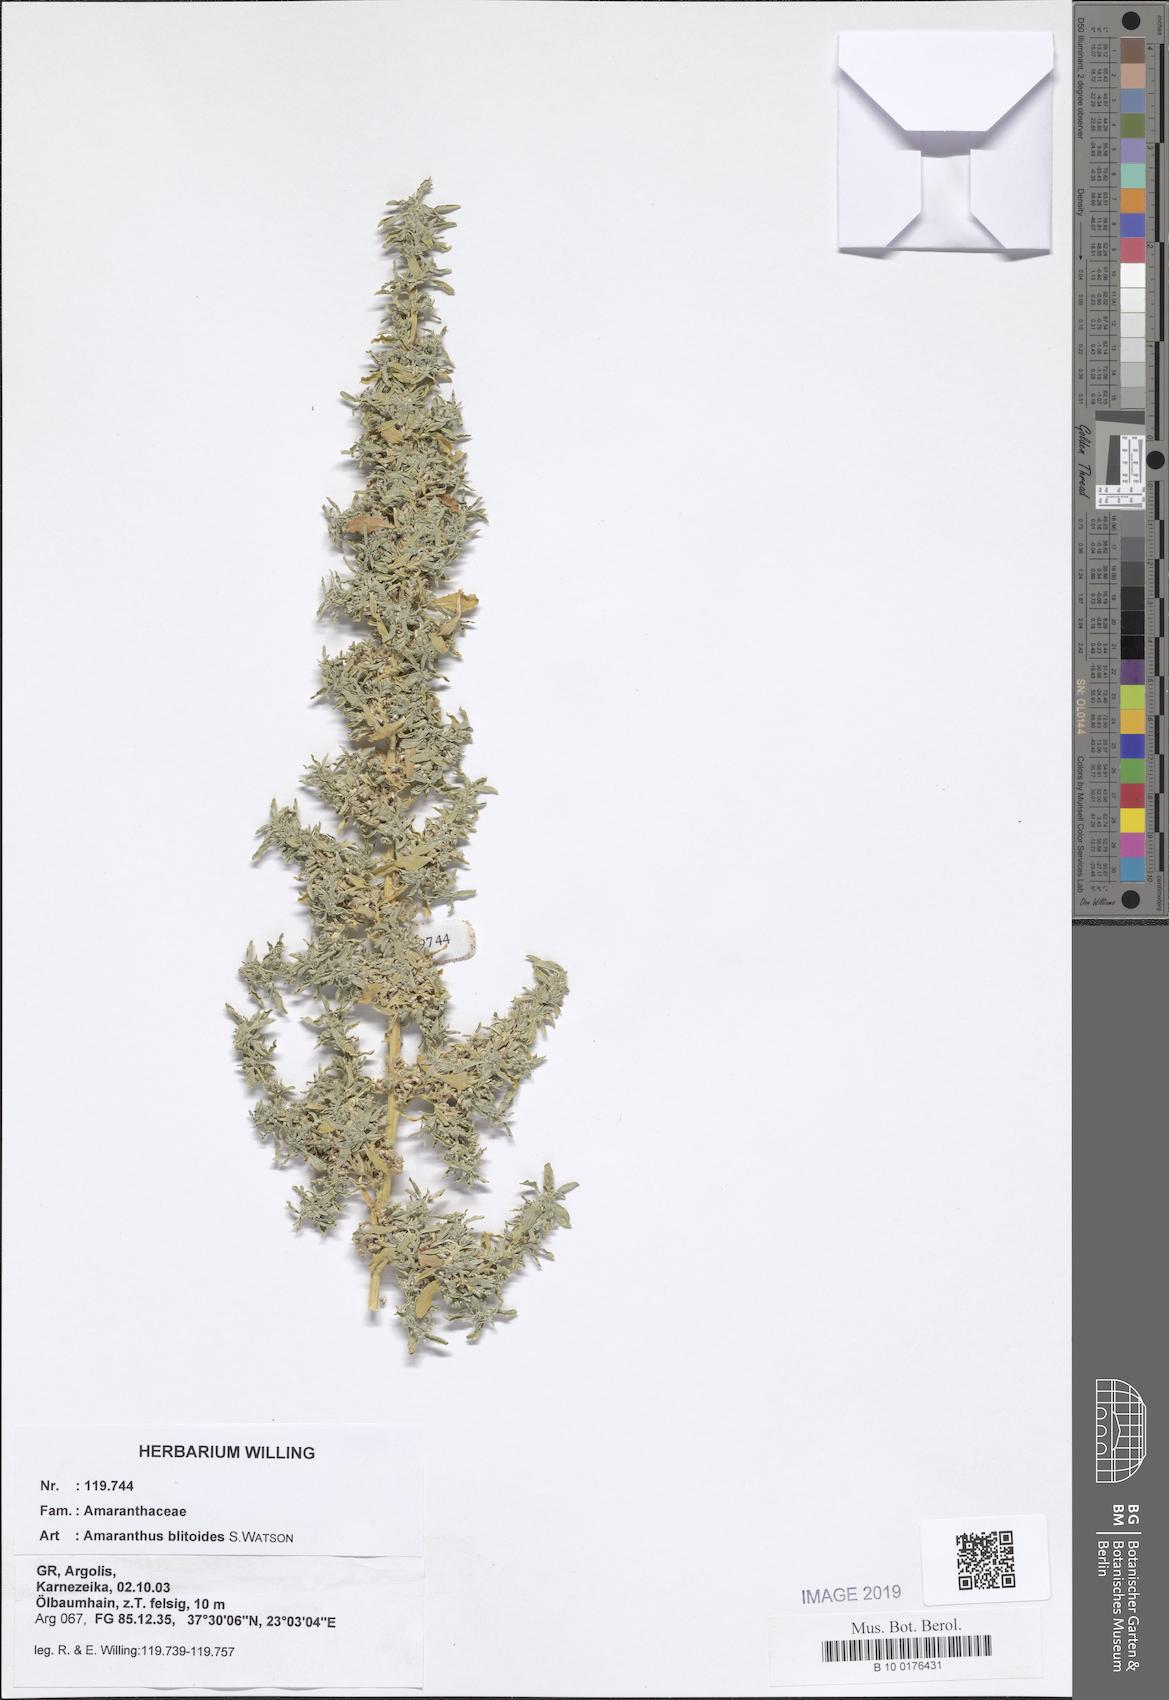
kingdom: Plantae
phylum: Tracheophyta
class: Magnoliopsida
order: Caryophyllales
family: Amaranthaceae
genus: Amaranthus
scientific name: Amaranthus blitoides
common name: Prostrate pigweed
